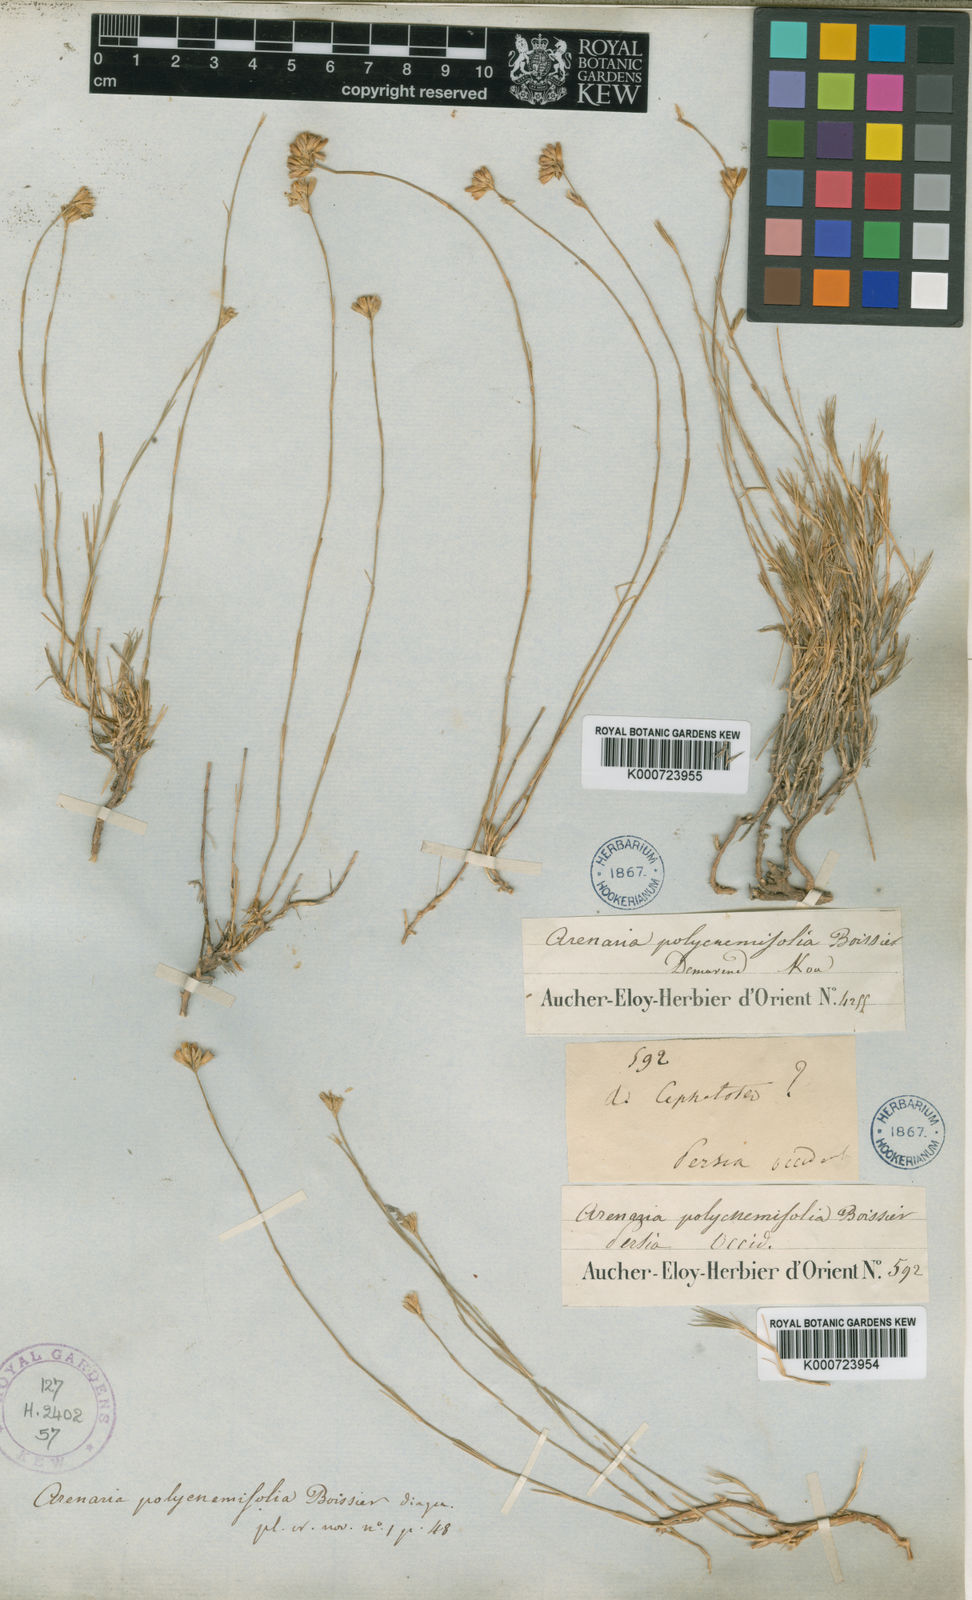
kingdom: Plantae
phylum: Tracheophyta
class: Magnoliopsida
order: Caryophyllales
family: Caryophyllaceae
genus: Eremogone
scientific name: Eremogone polycnemifolia
